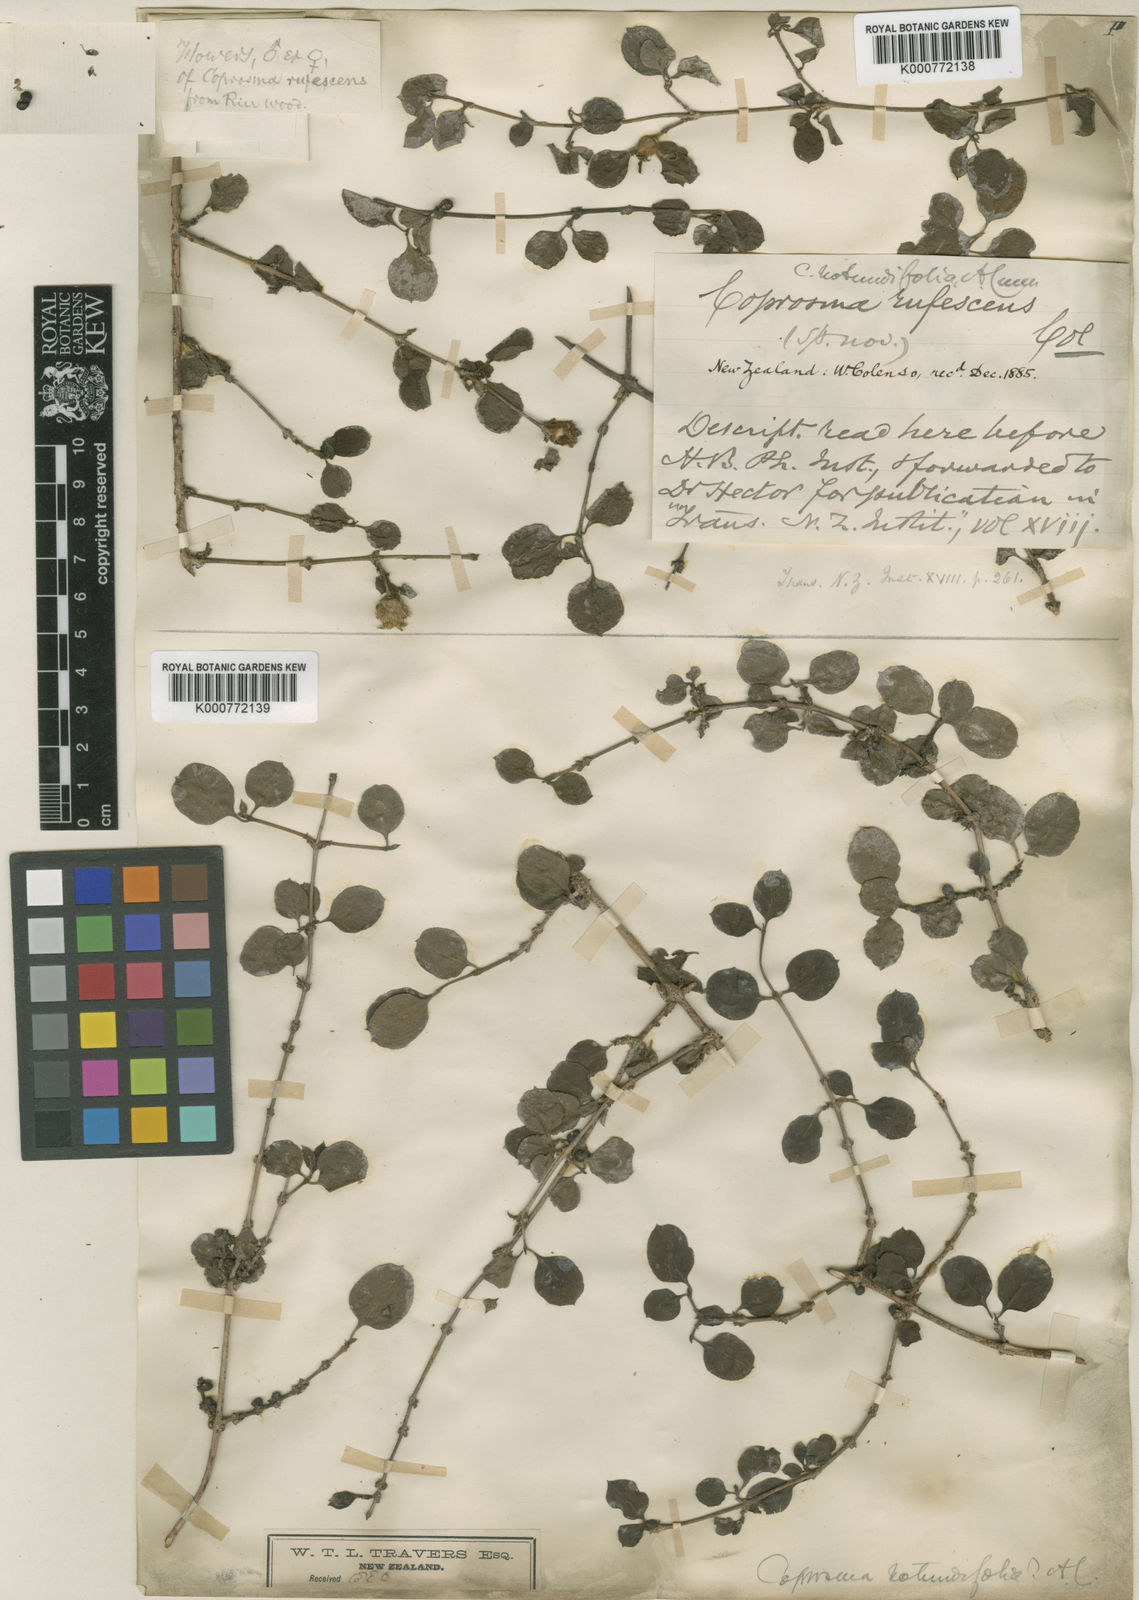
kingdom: Plantae
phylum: Tracheophyta
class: Magnoliopsida
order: Gentianales
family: Rubiaceae
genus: Coprosma
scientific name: Coprosma rotundifolia
